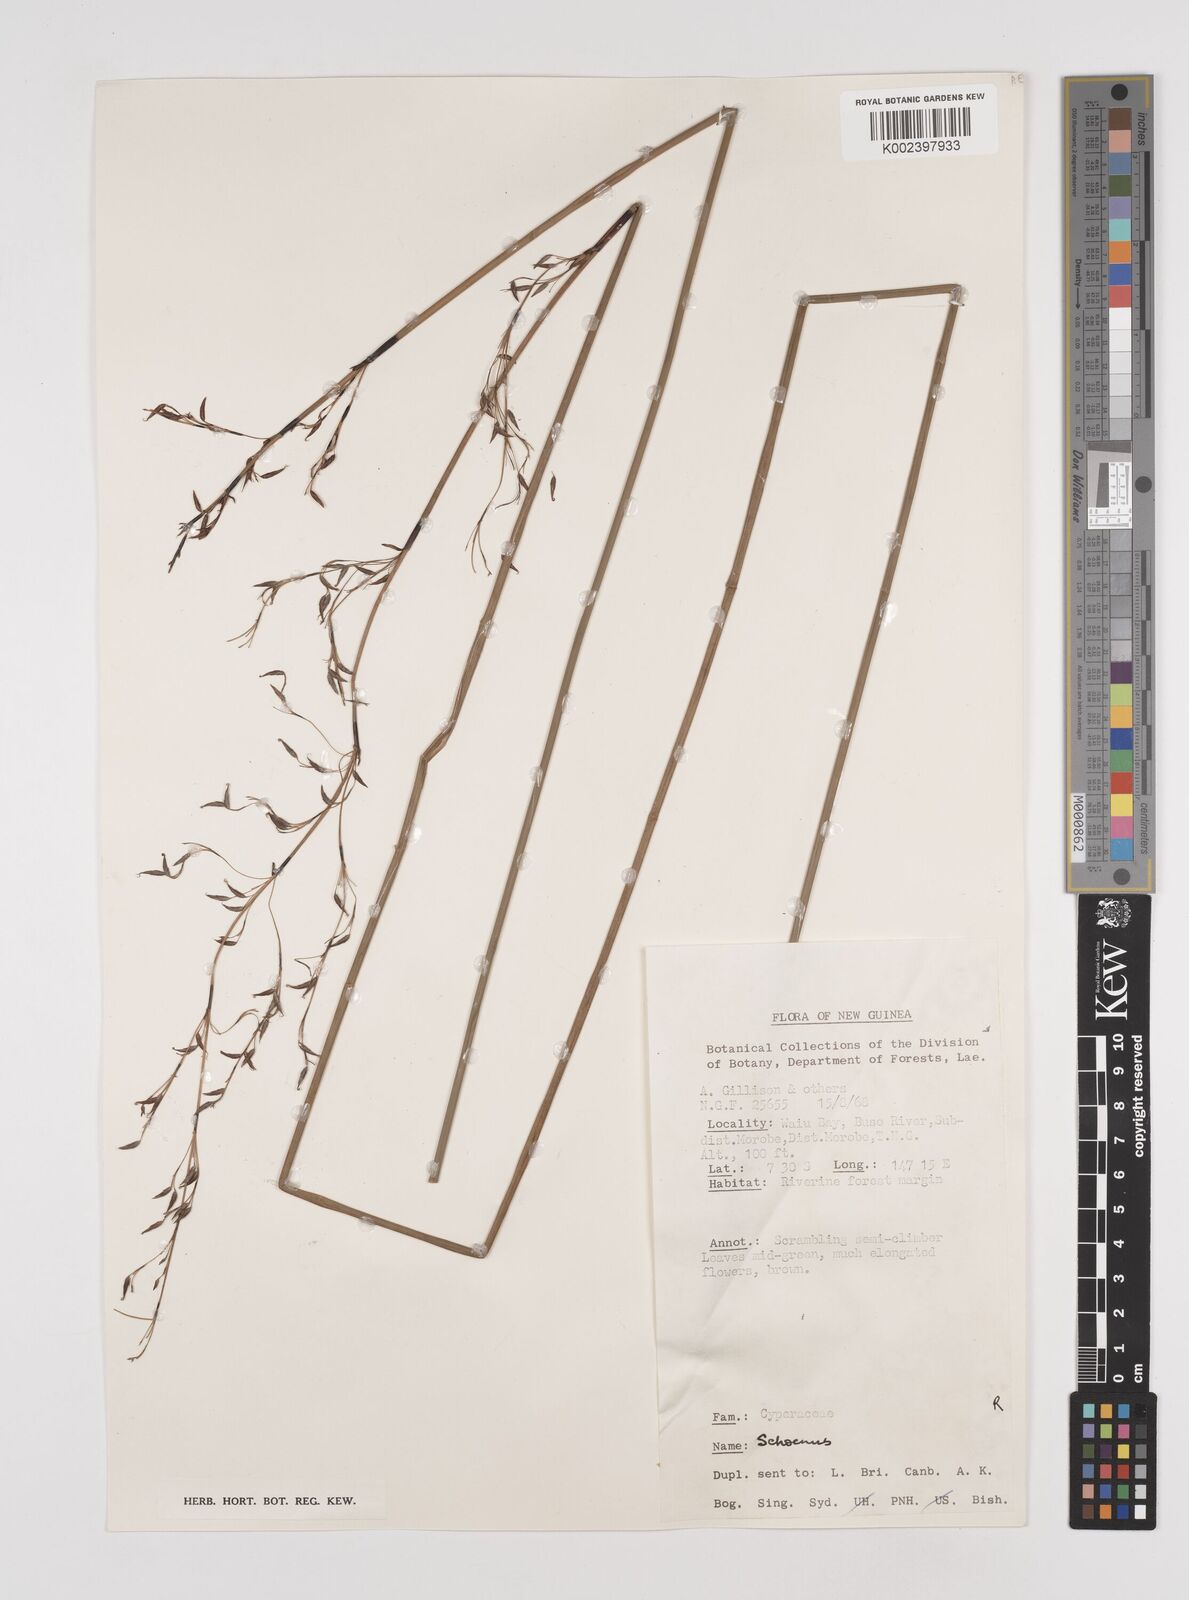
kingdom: Plantae
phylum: Tracheophyta
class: Liliopsida
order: Poales
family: Cyperaceae
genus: Schoenus
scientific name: Schoenus
